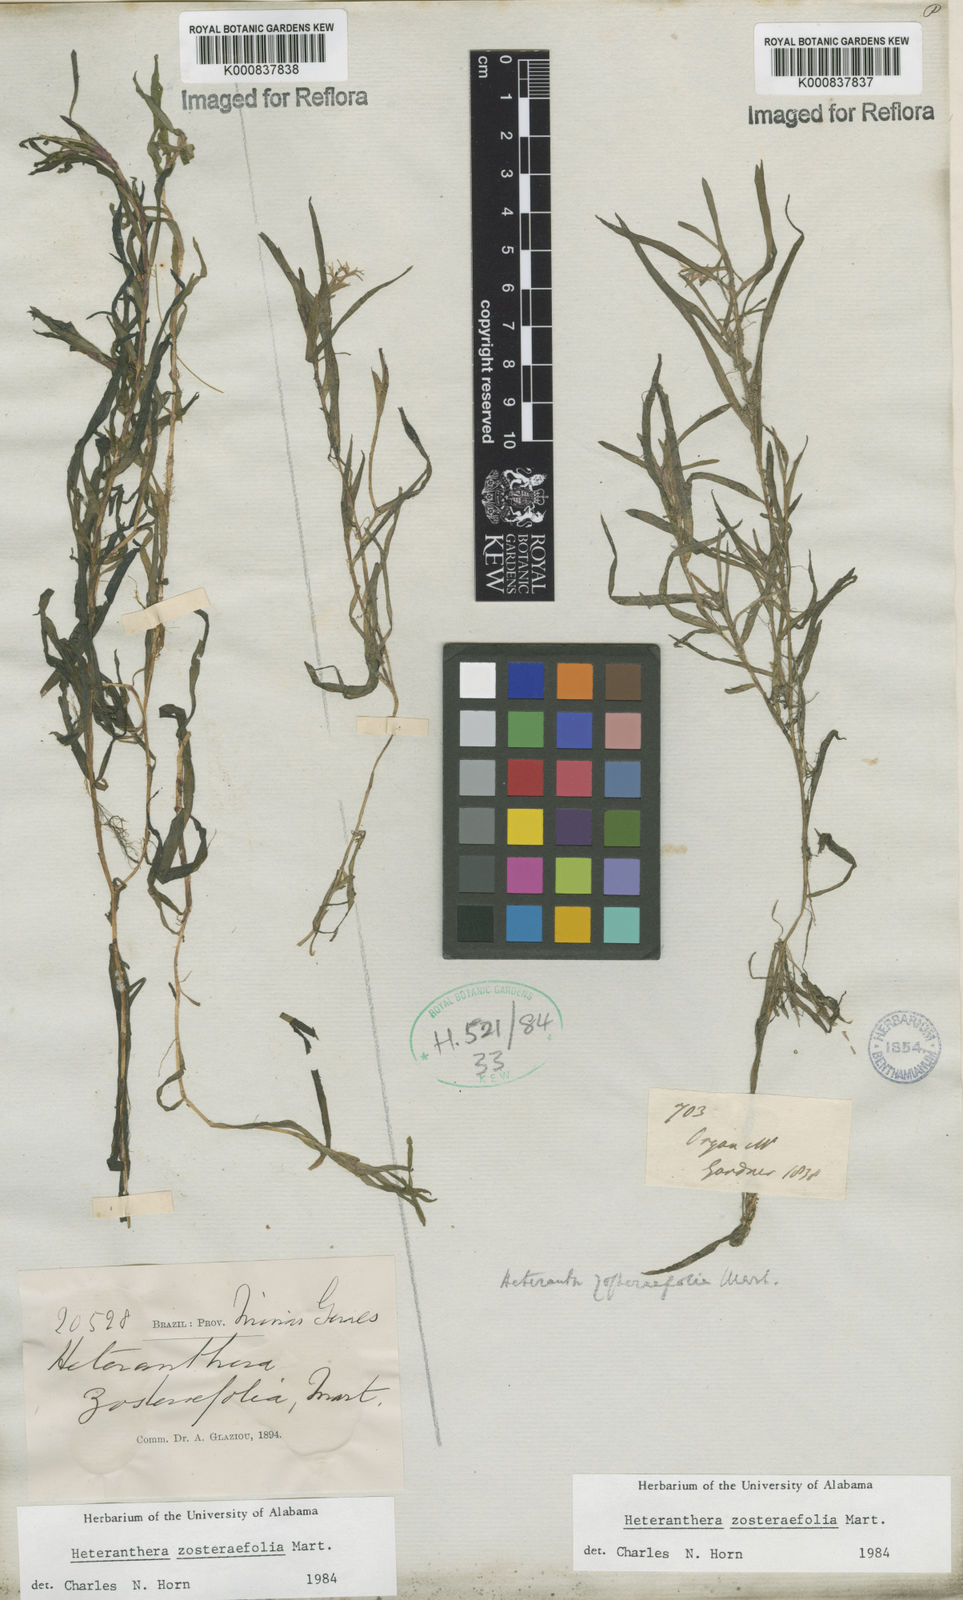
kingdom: Plantae
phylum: Tracheophyta
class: Liliopsida
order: Commelinales
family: Pontederiaceae
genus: Heteranthera
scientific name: Heteranthera zosterifolia
